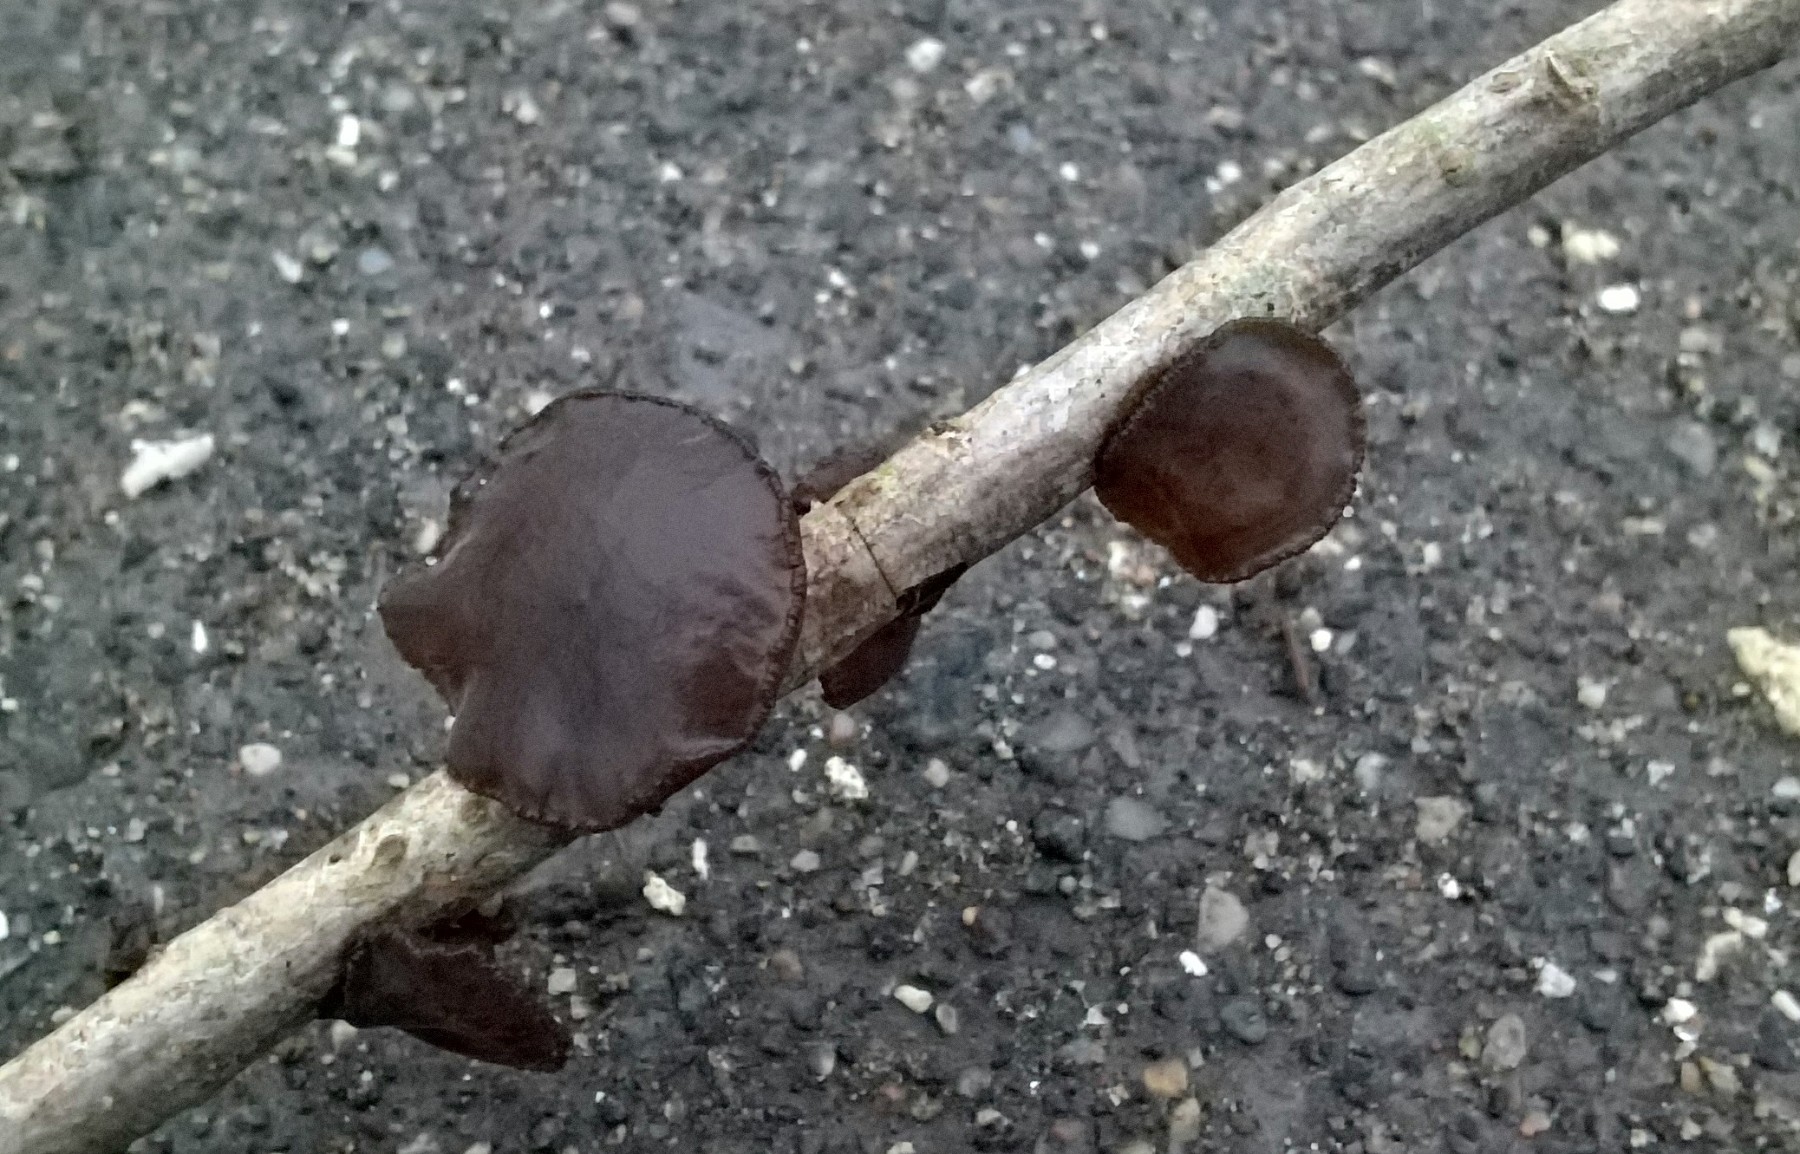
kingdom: Fungi
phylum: Basidiomycota
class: Agaricomycetes
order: Auriculariales
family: Auriculariaceae
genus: Exidia
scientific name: Exidia recisa
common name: pile-bævretop
